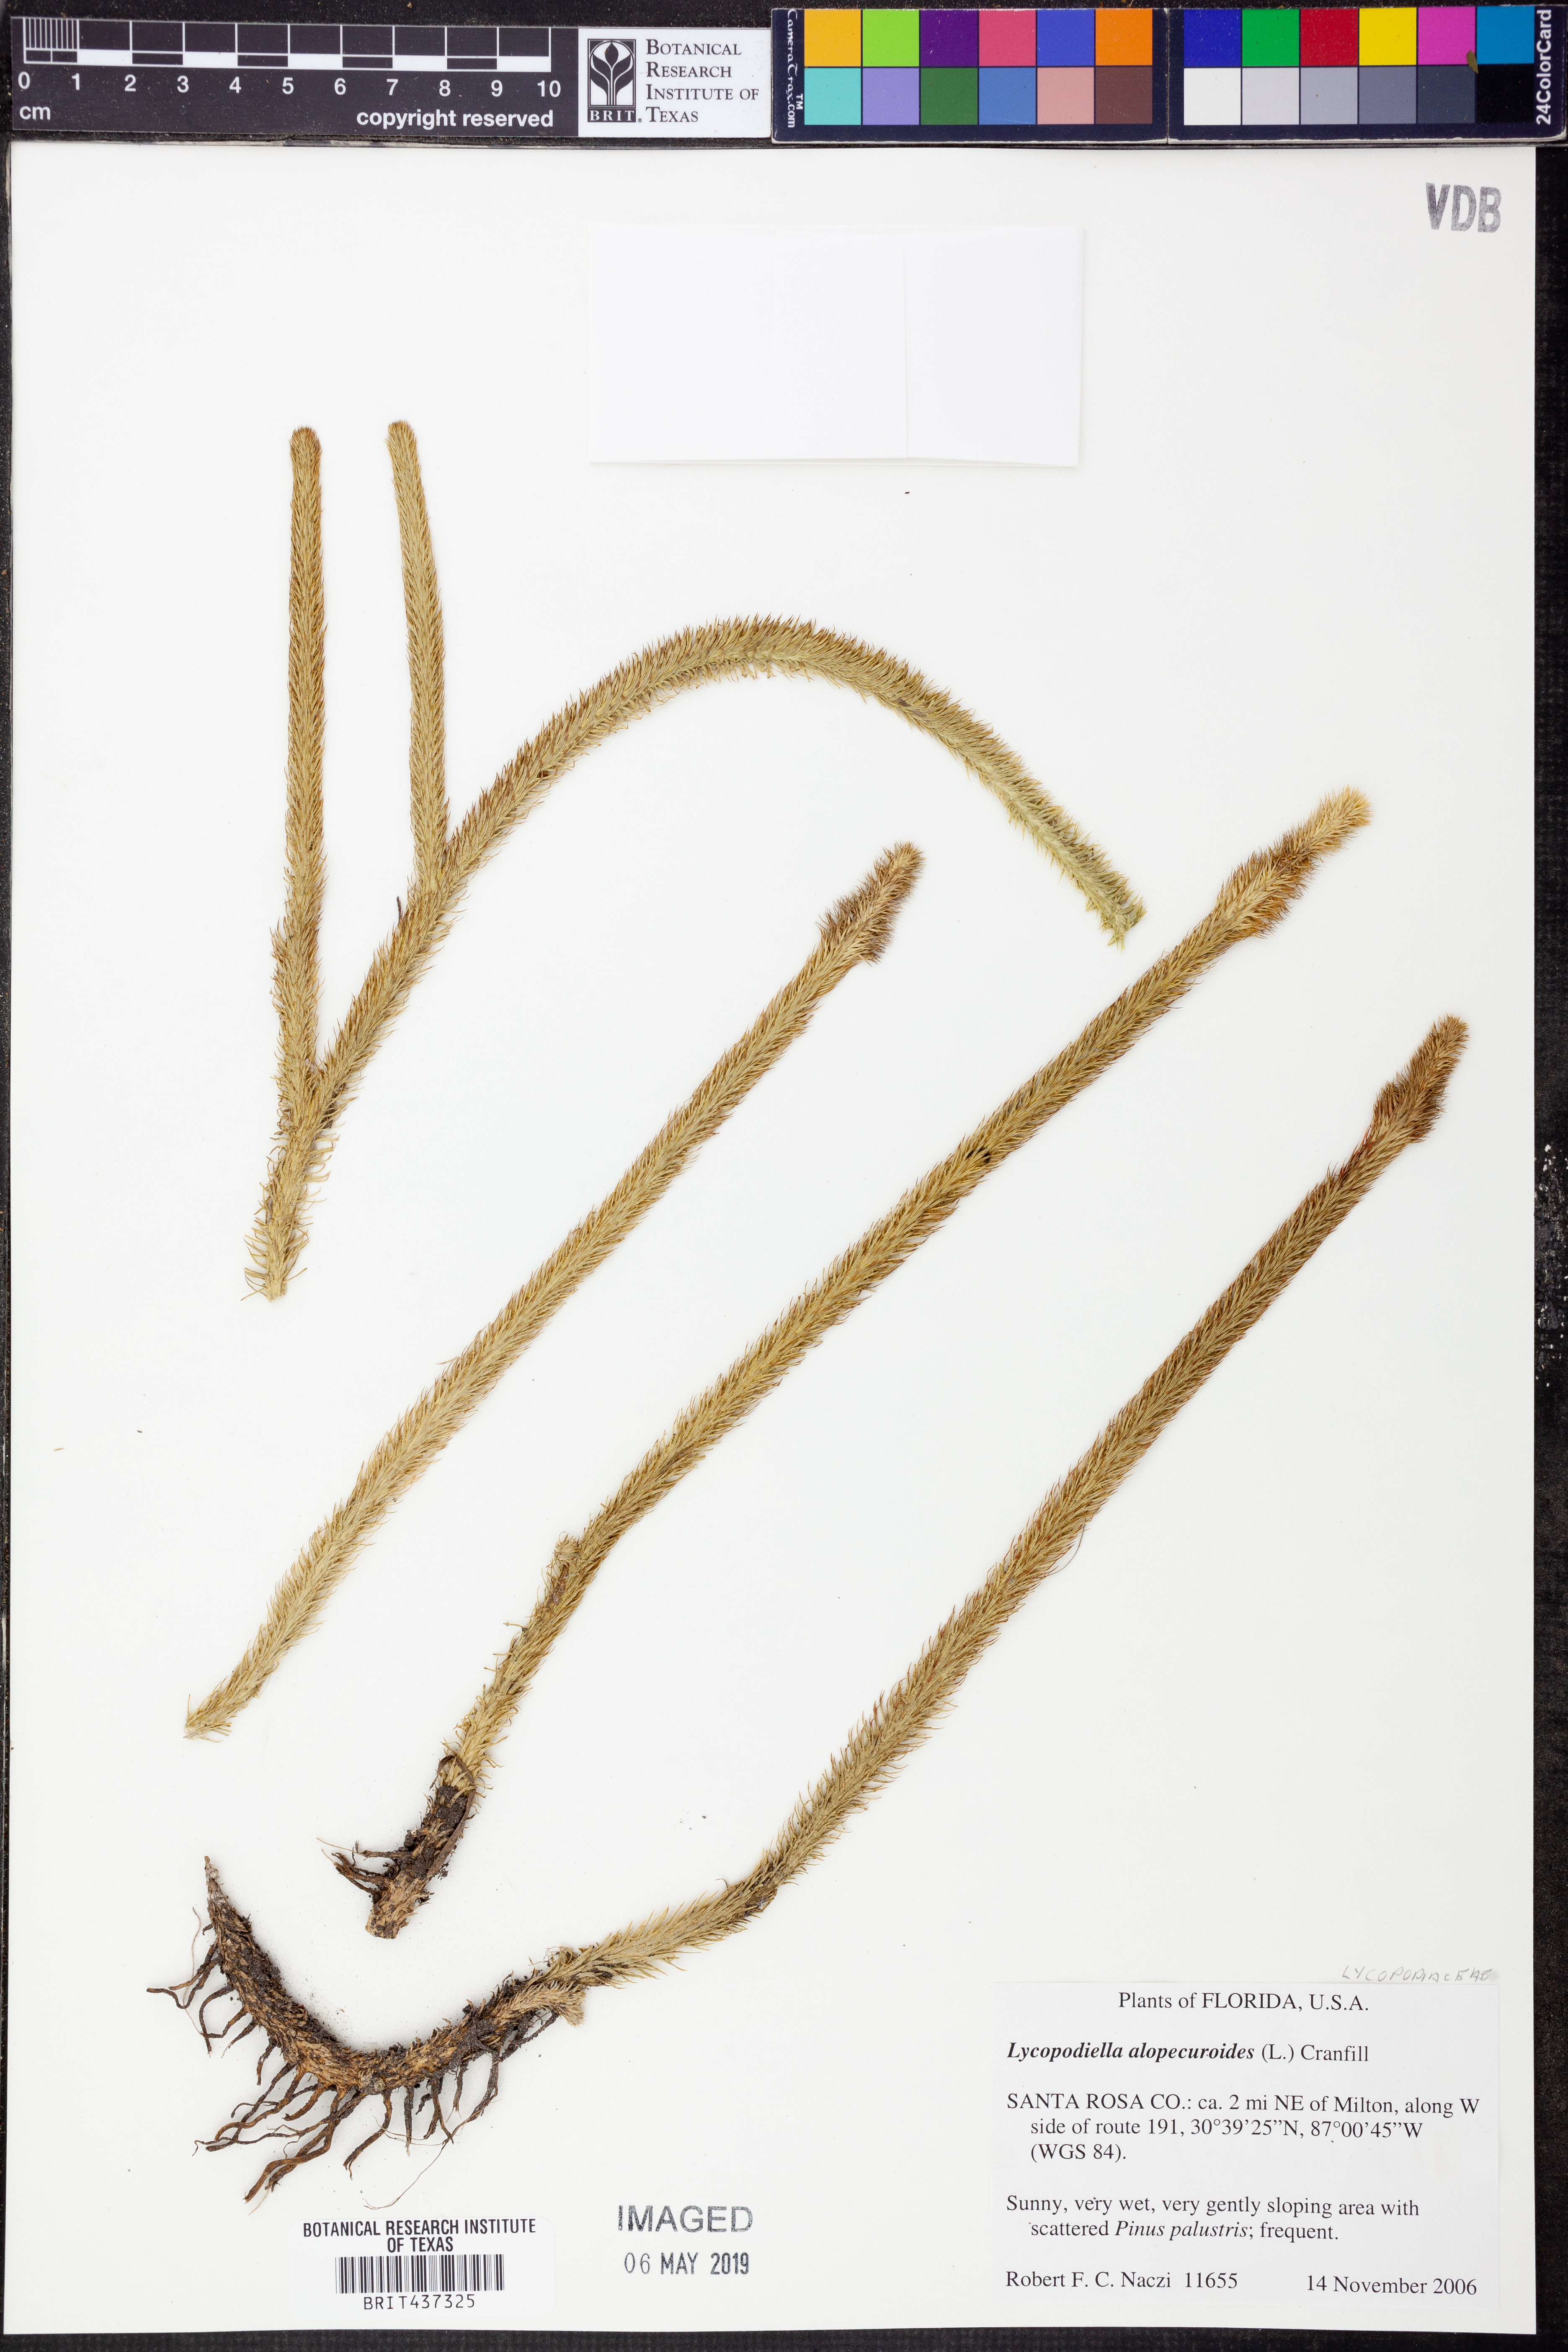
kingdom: Plantae
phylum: Tracheophyta
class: Lycopodiopsida
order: Lycopodiales
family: Lycopodiaceae
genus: Lycopodiella
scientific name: Lycopodiella alopecuroides
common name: Foxtail clubmoss
